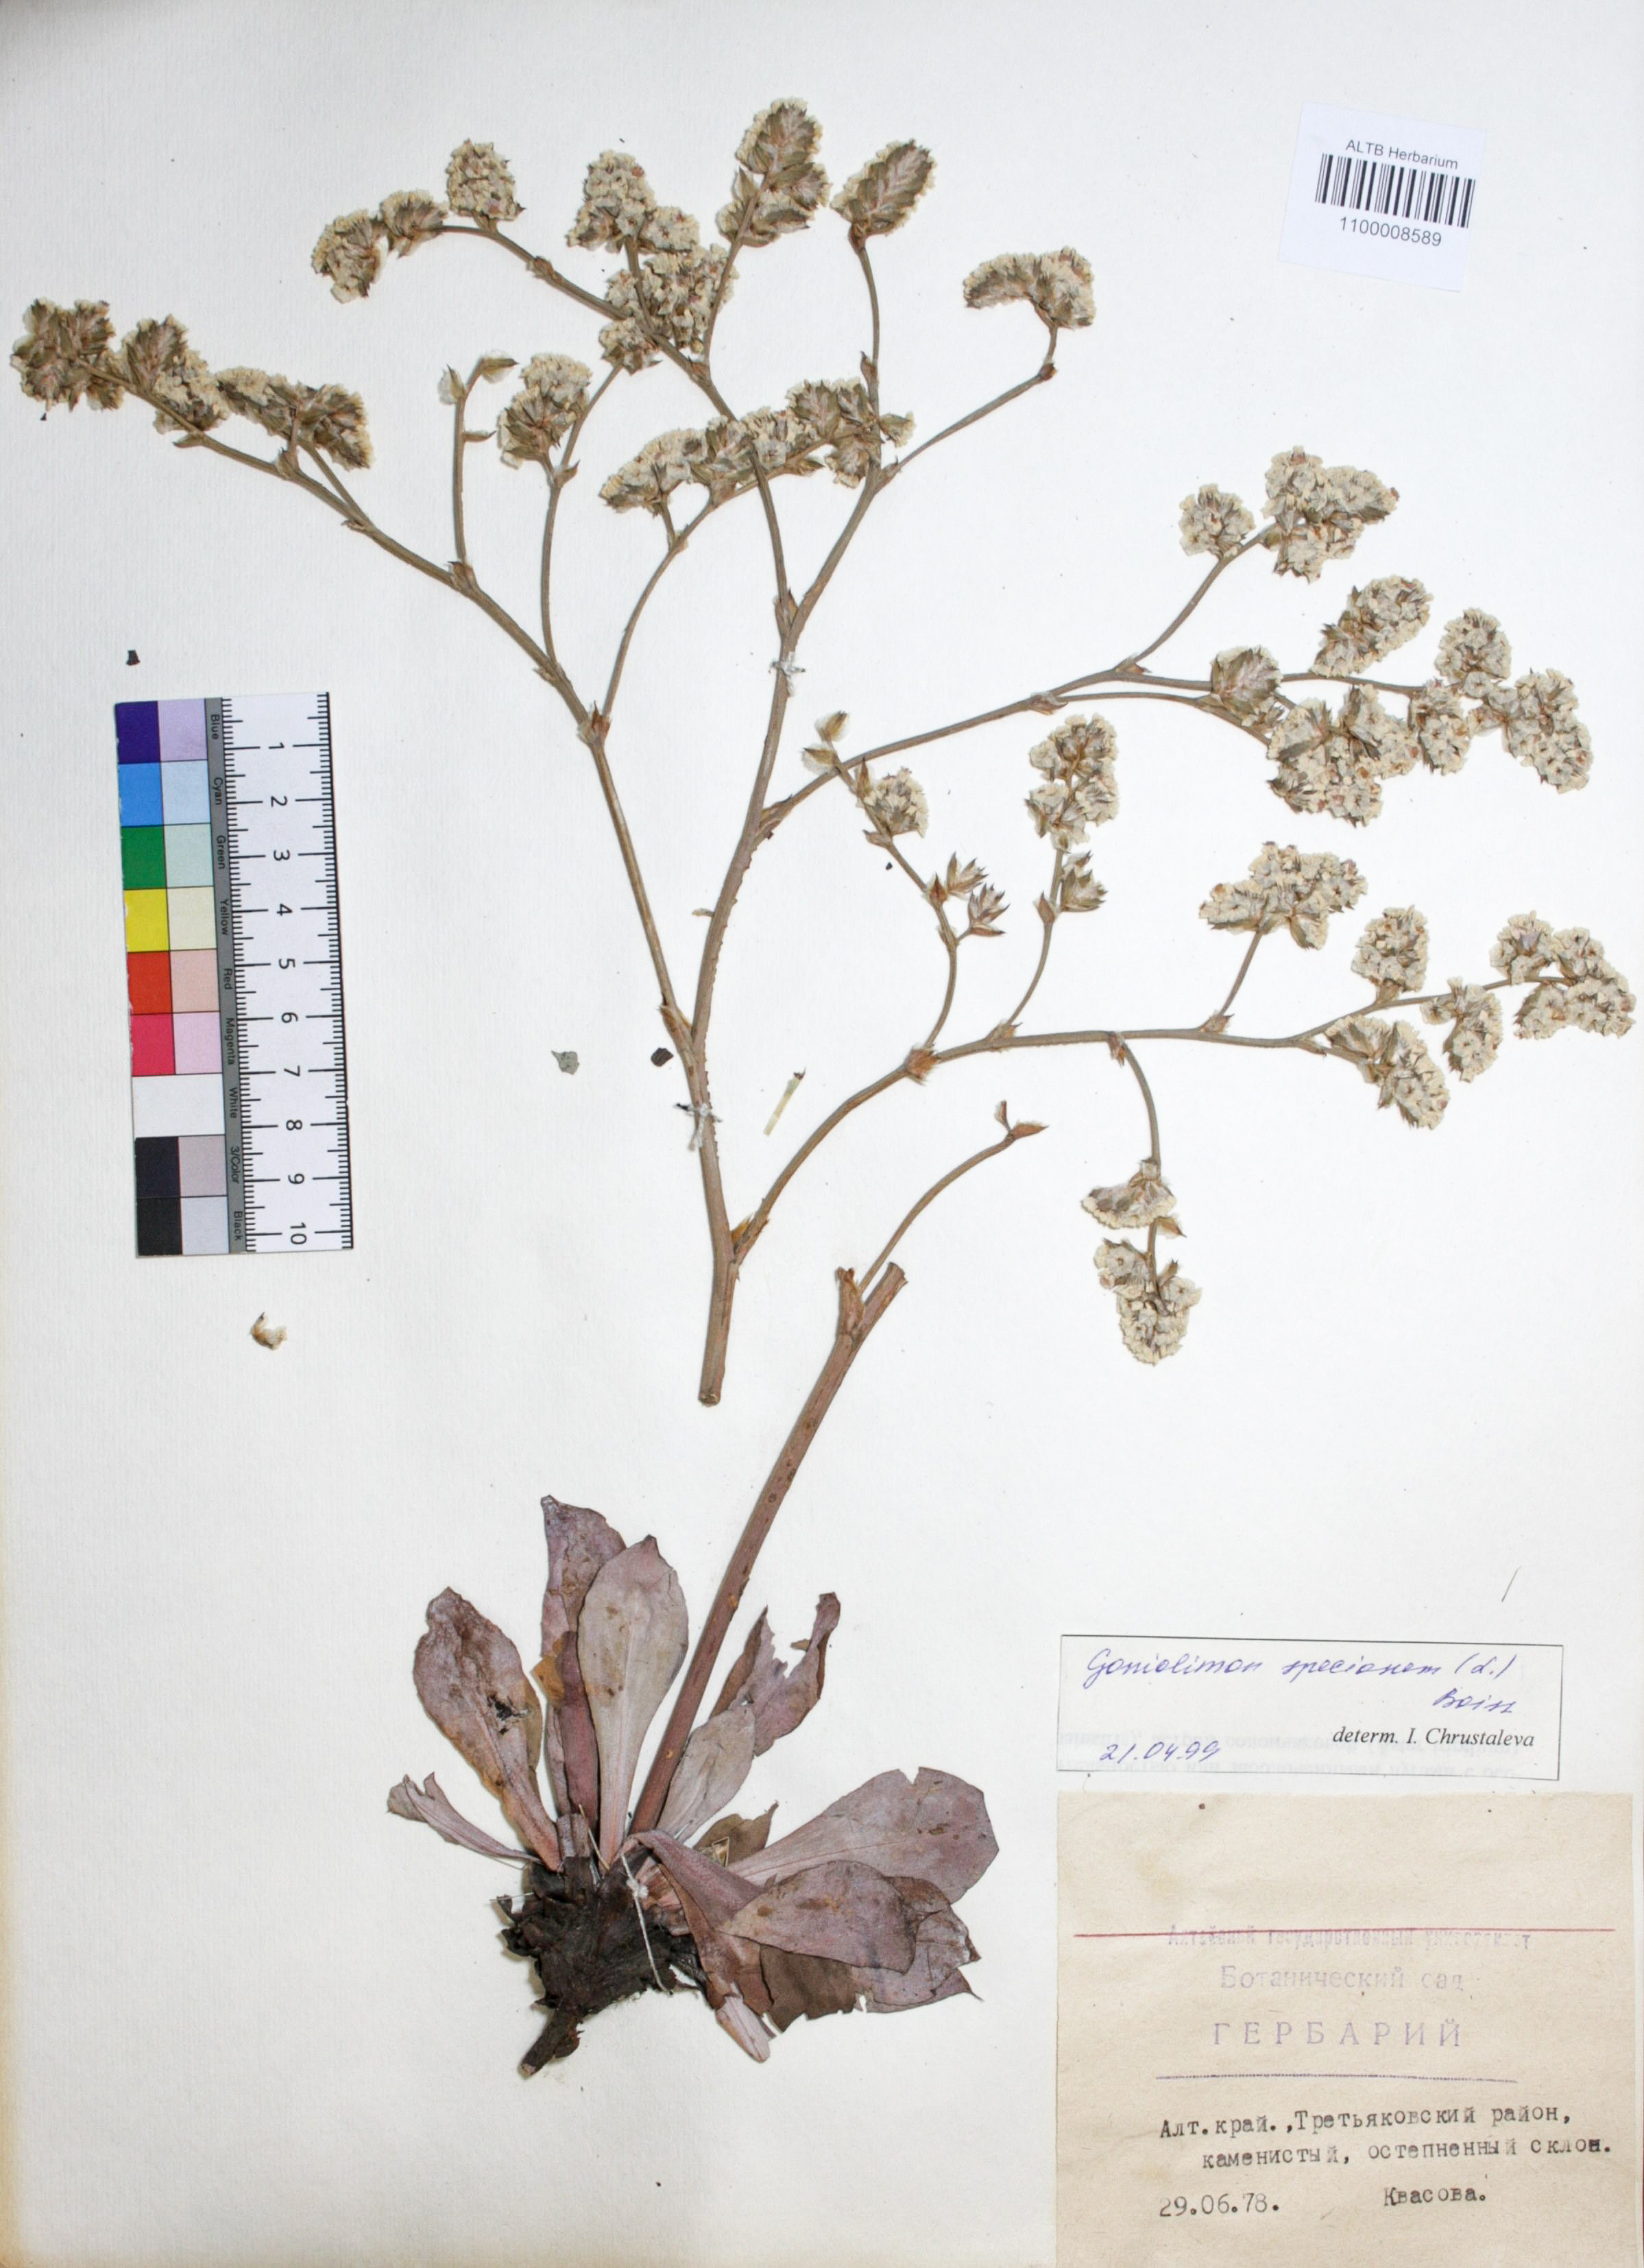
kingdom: Plantae
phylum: Tracheophyta
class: Magnoliopsida
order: Caryophyllales
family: Plumbaginaceae
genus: Goniolimon
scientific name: Goniolimon speciosum
